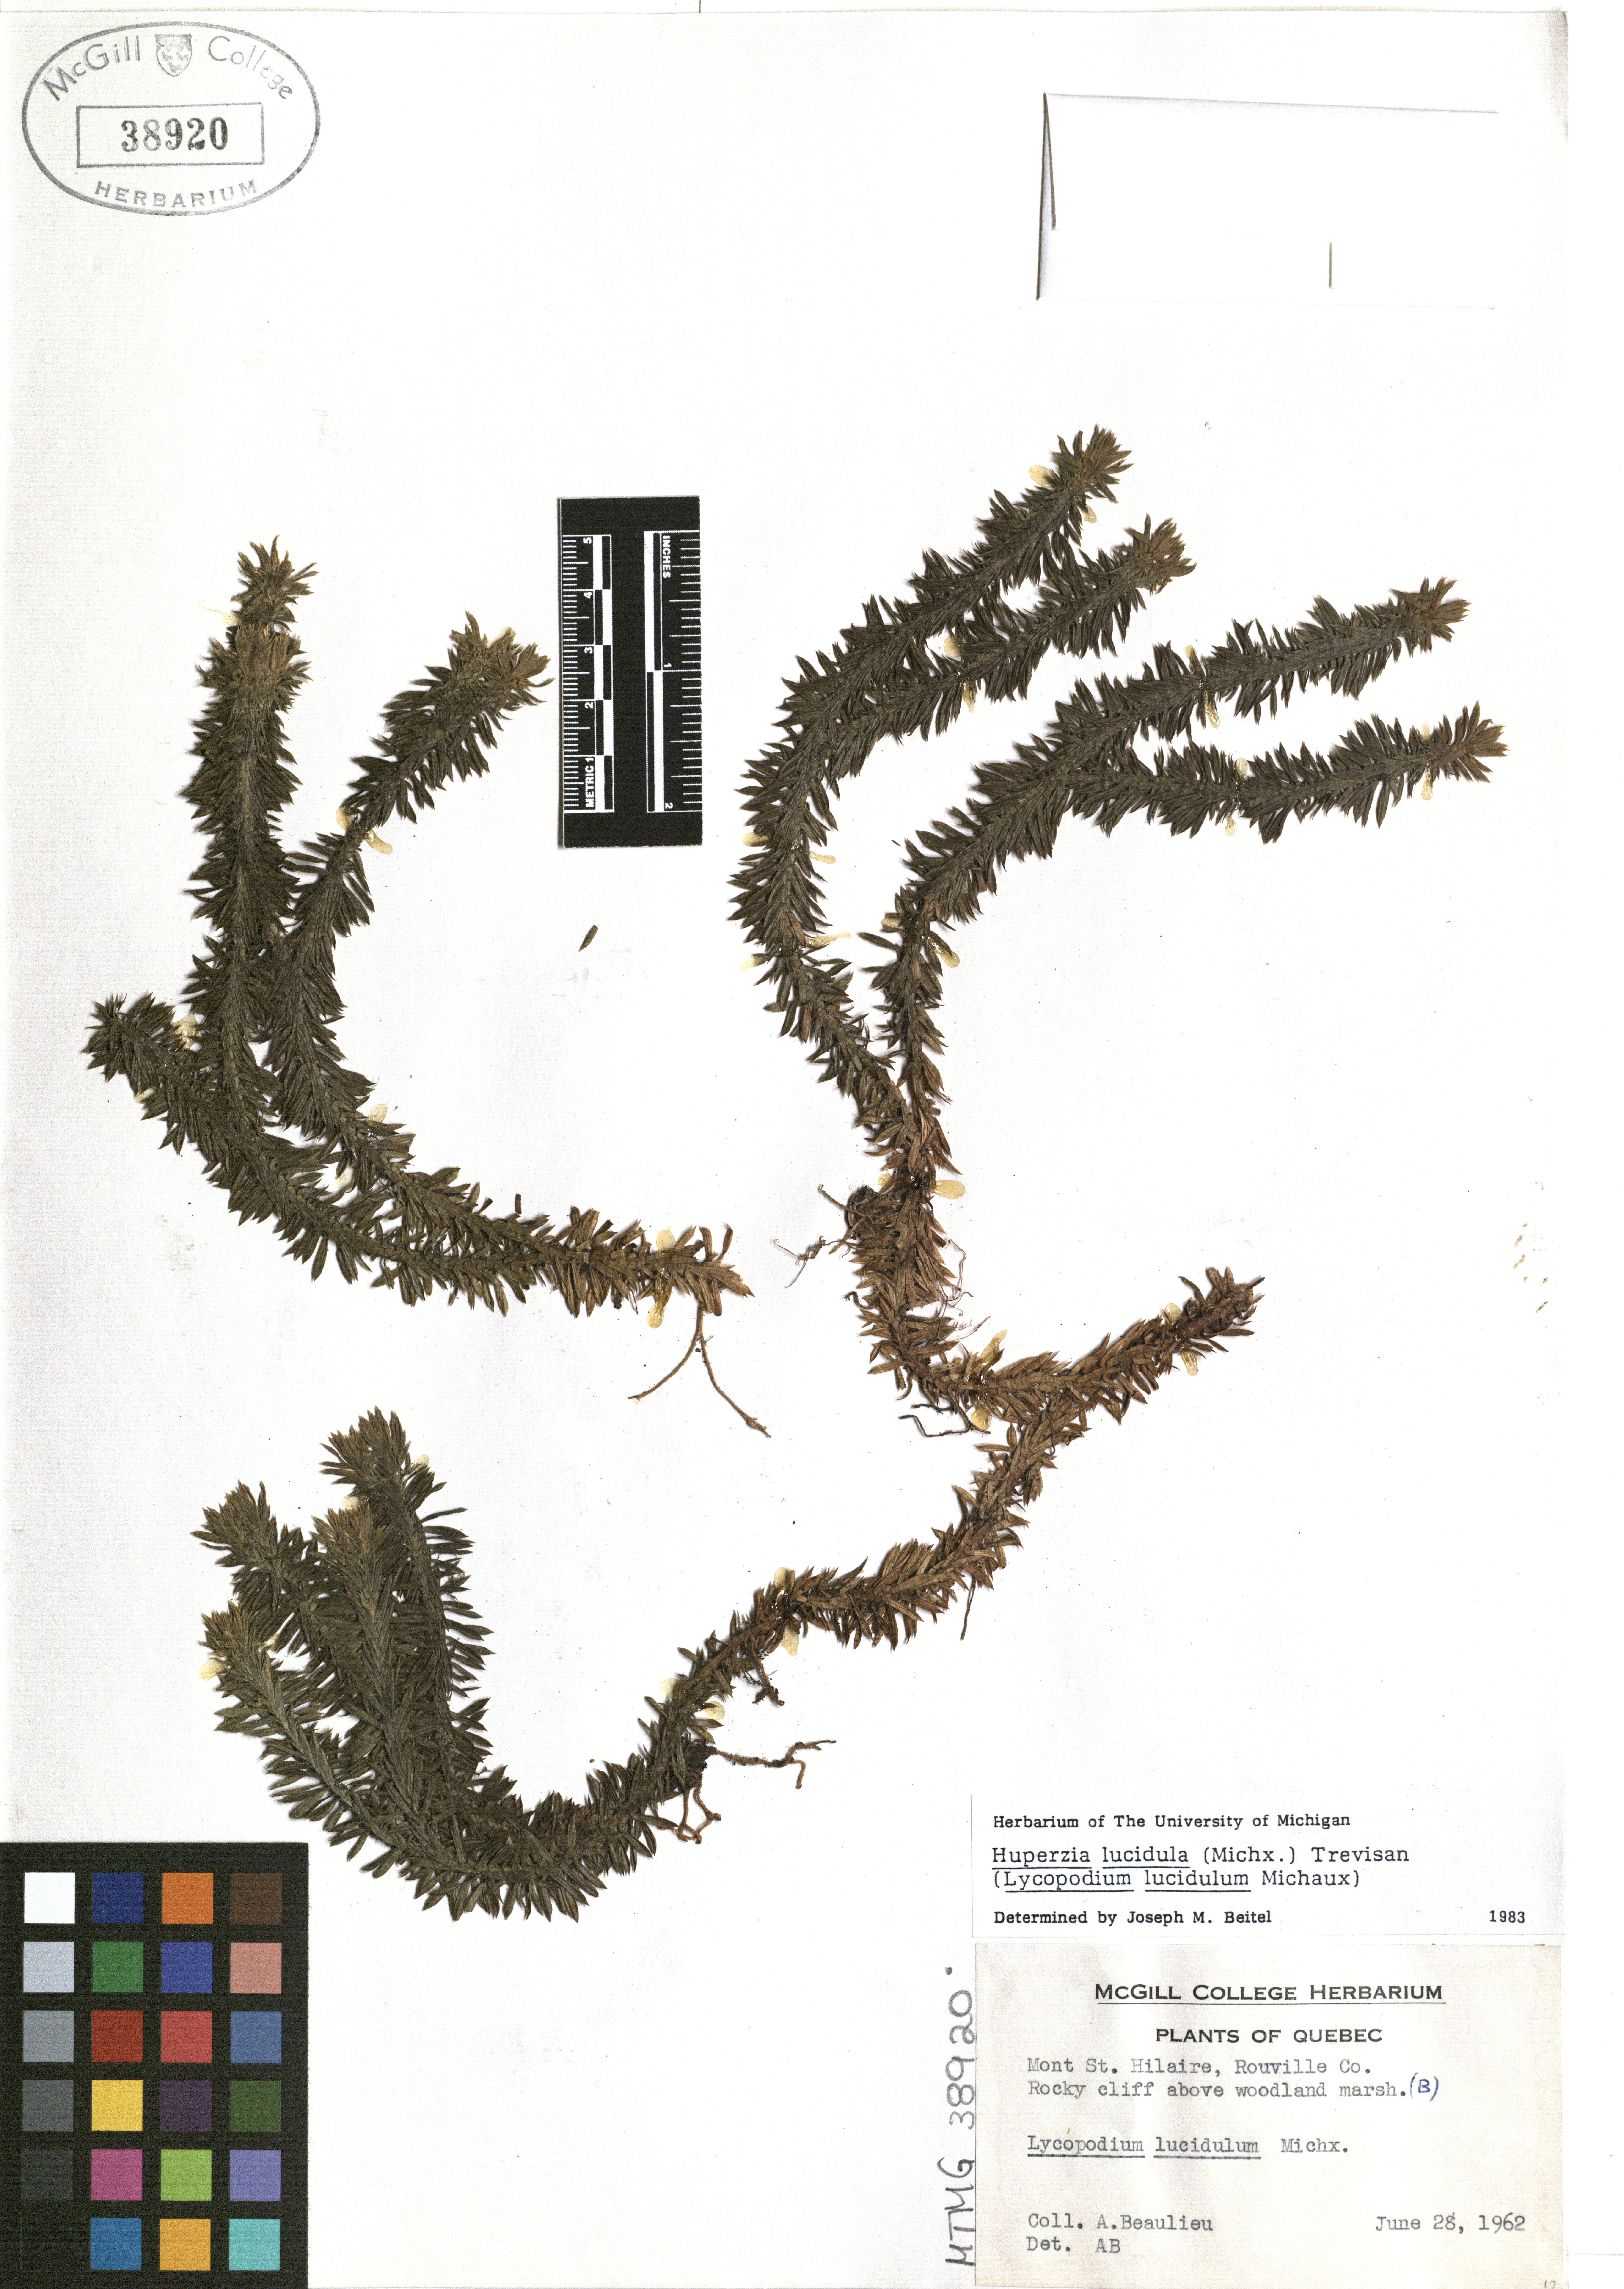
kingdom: Plantae
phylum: Tracheophyta
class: Lycopodiopsida
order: Lycopodiales
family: Lycopodiaceae
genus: Huperzia
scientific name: Huperzia lucidula
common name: Shining clubmoss
